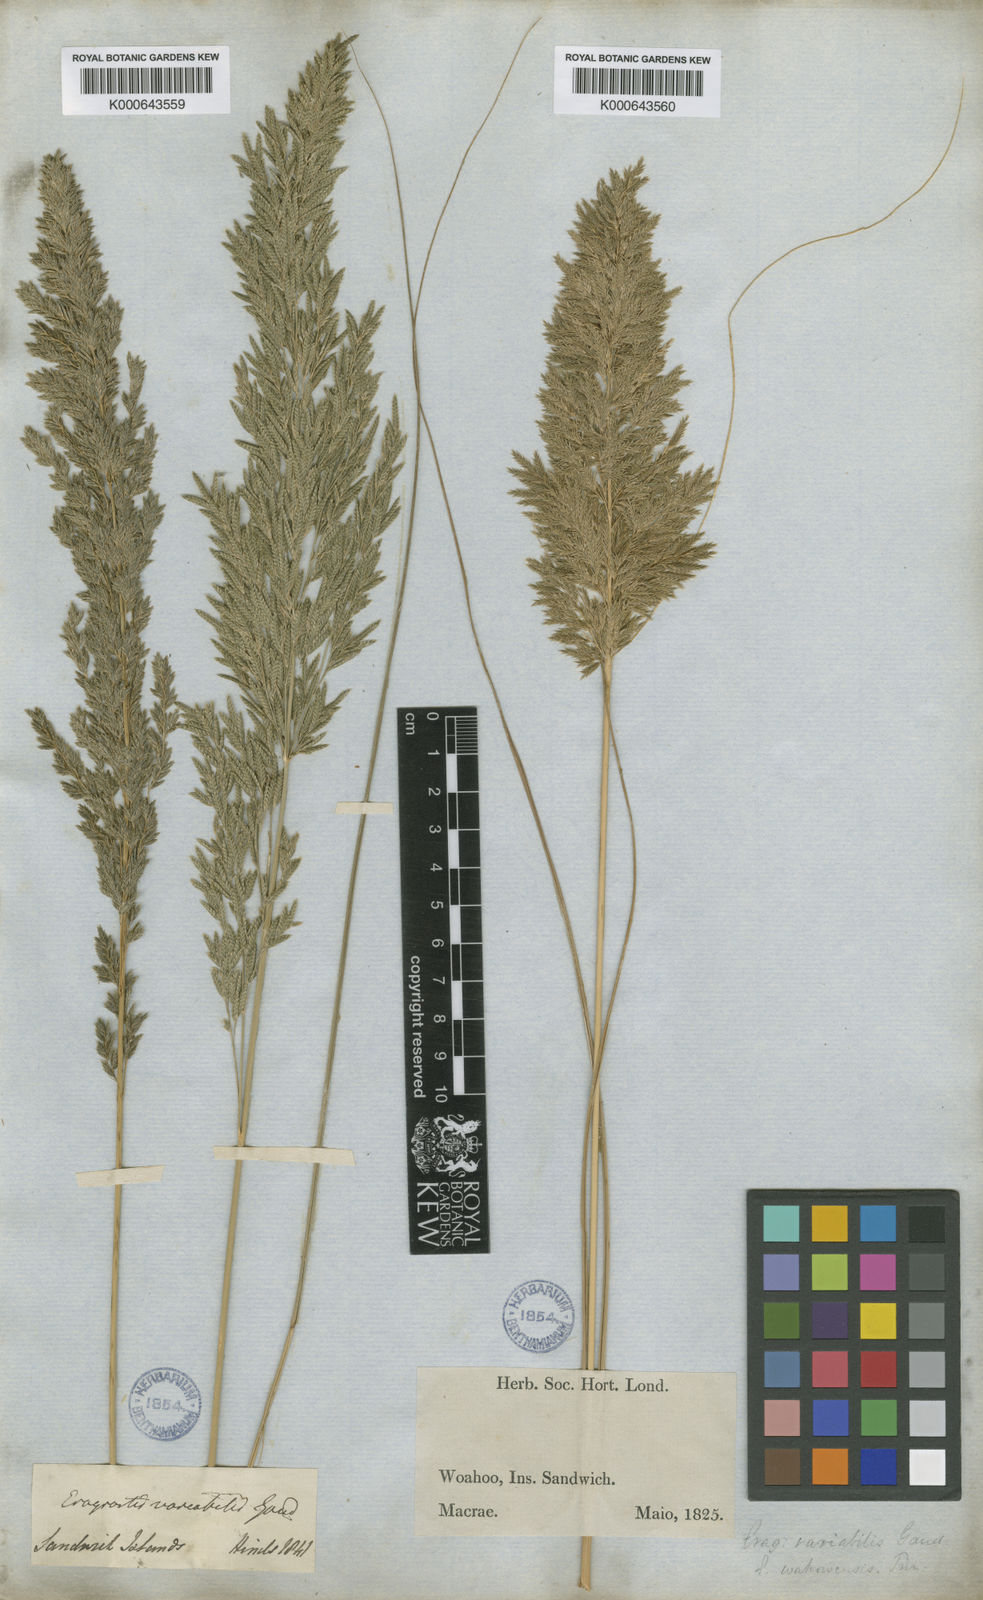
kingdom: Plantae
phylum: Tracheophyta
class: Liliopsida
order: Poales
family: Poaceae
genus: Eragrostis
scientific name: Eragrostis
